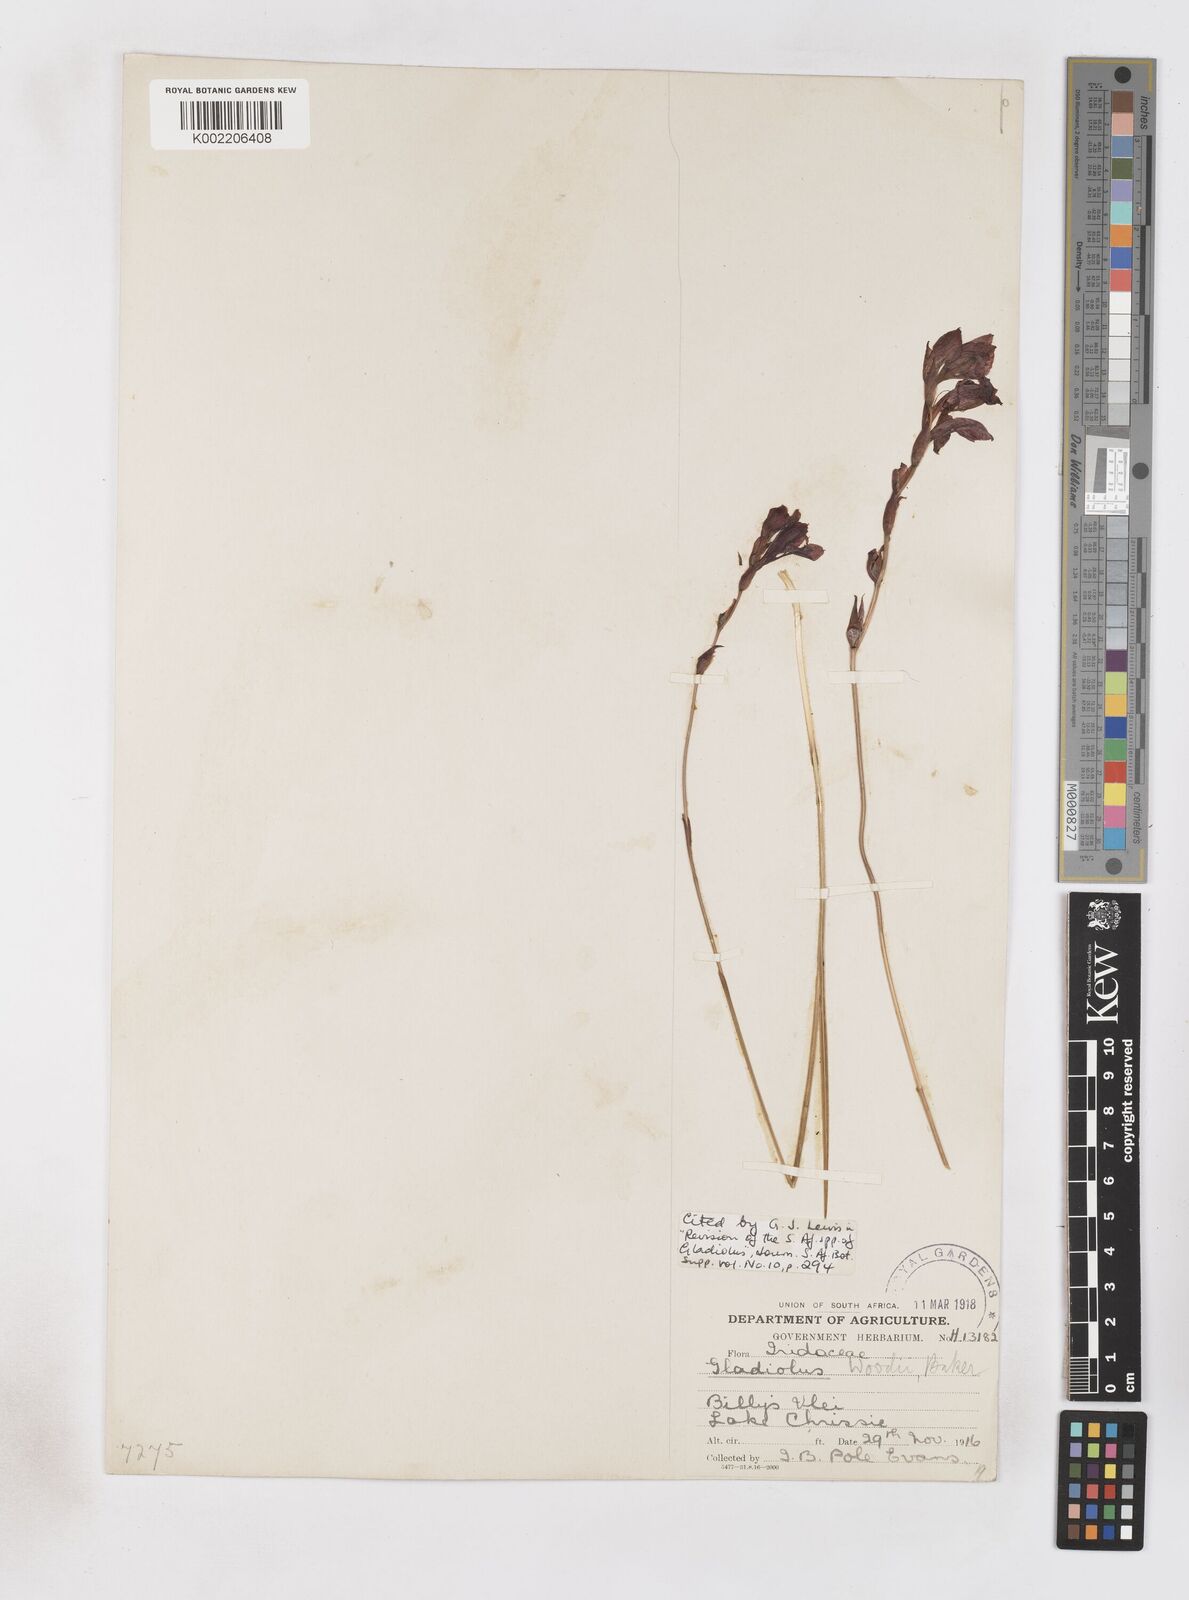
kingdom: Plantae
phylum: Tracheophyta
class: Liliopsida
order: Asparagales
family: Iridaceae
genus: Gladiolus
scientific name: Gladiolus woodii
